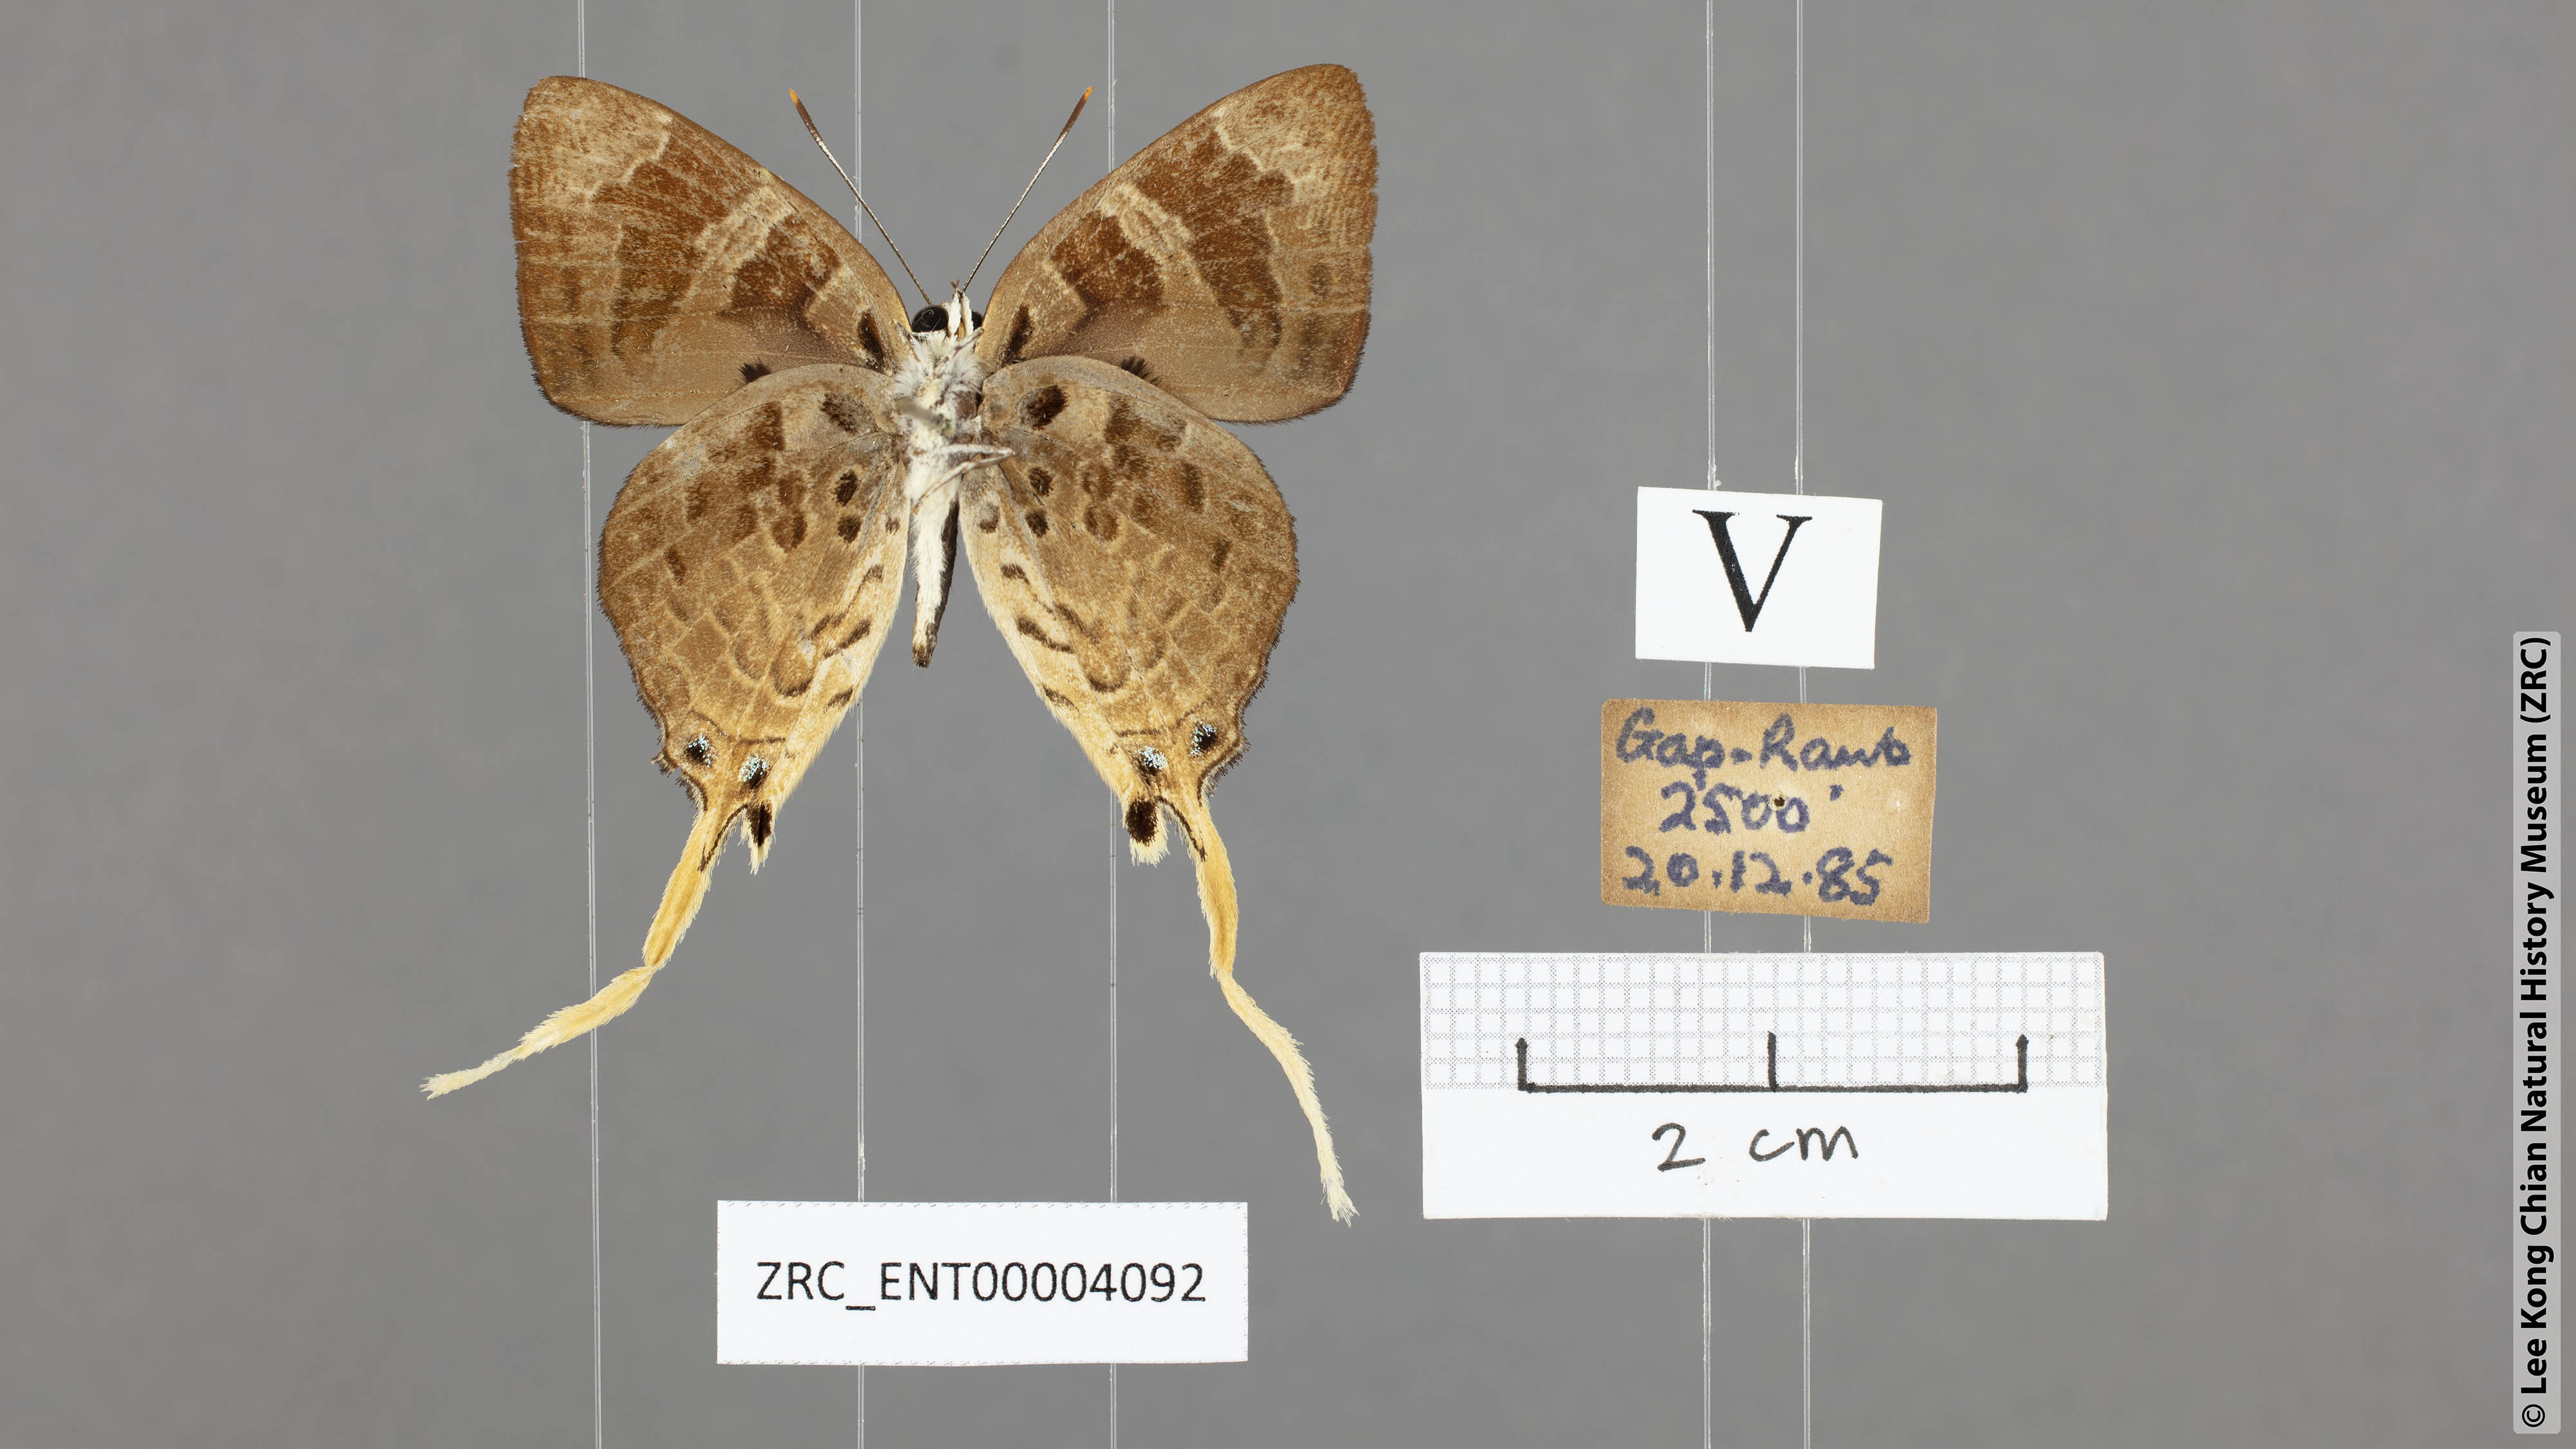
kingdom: Animalia
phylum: Arthropoda
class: Insecta
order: Lepidoptera
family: Lycaenidae
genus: Bindahara
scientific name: Bindahara phocides
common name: Sword-tailed flash
